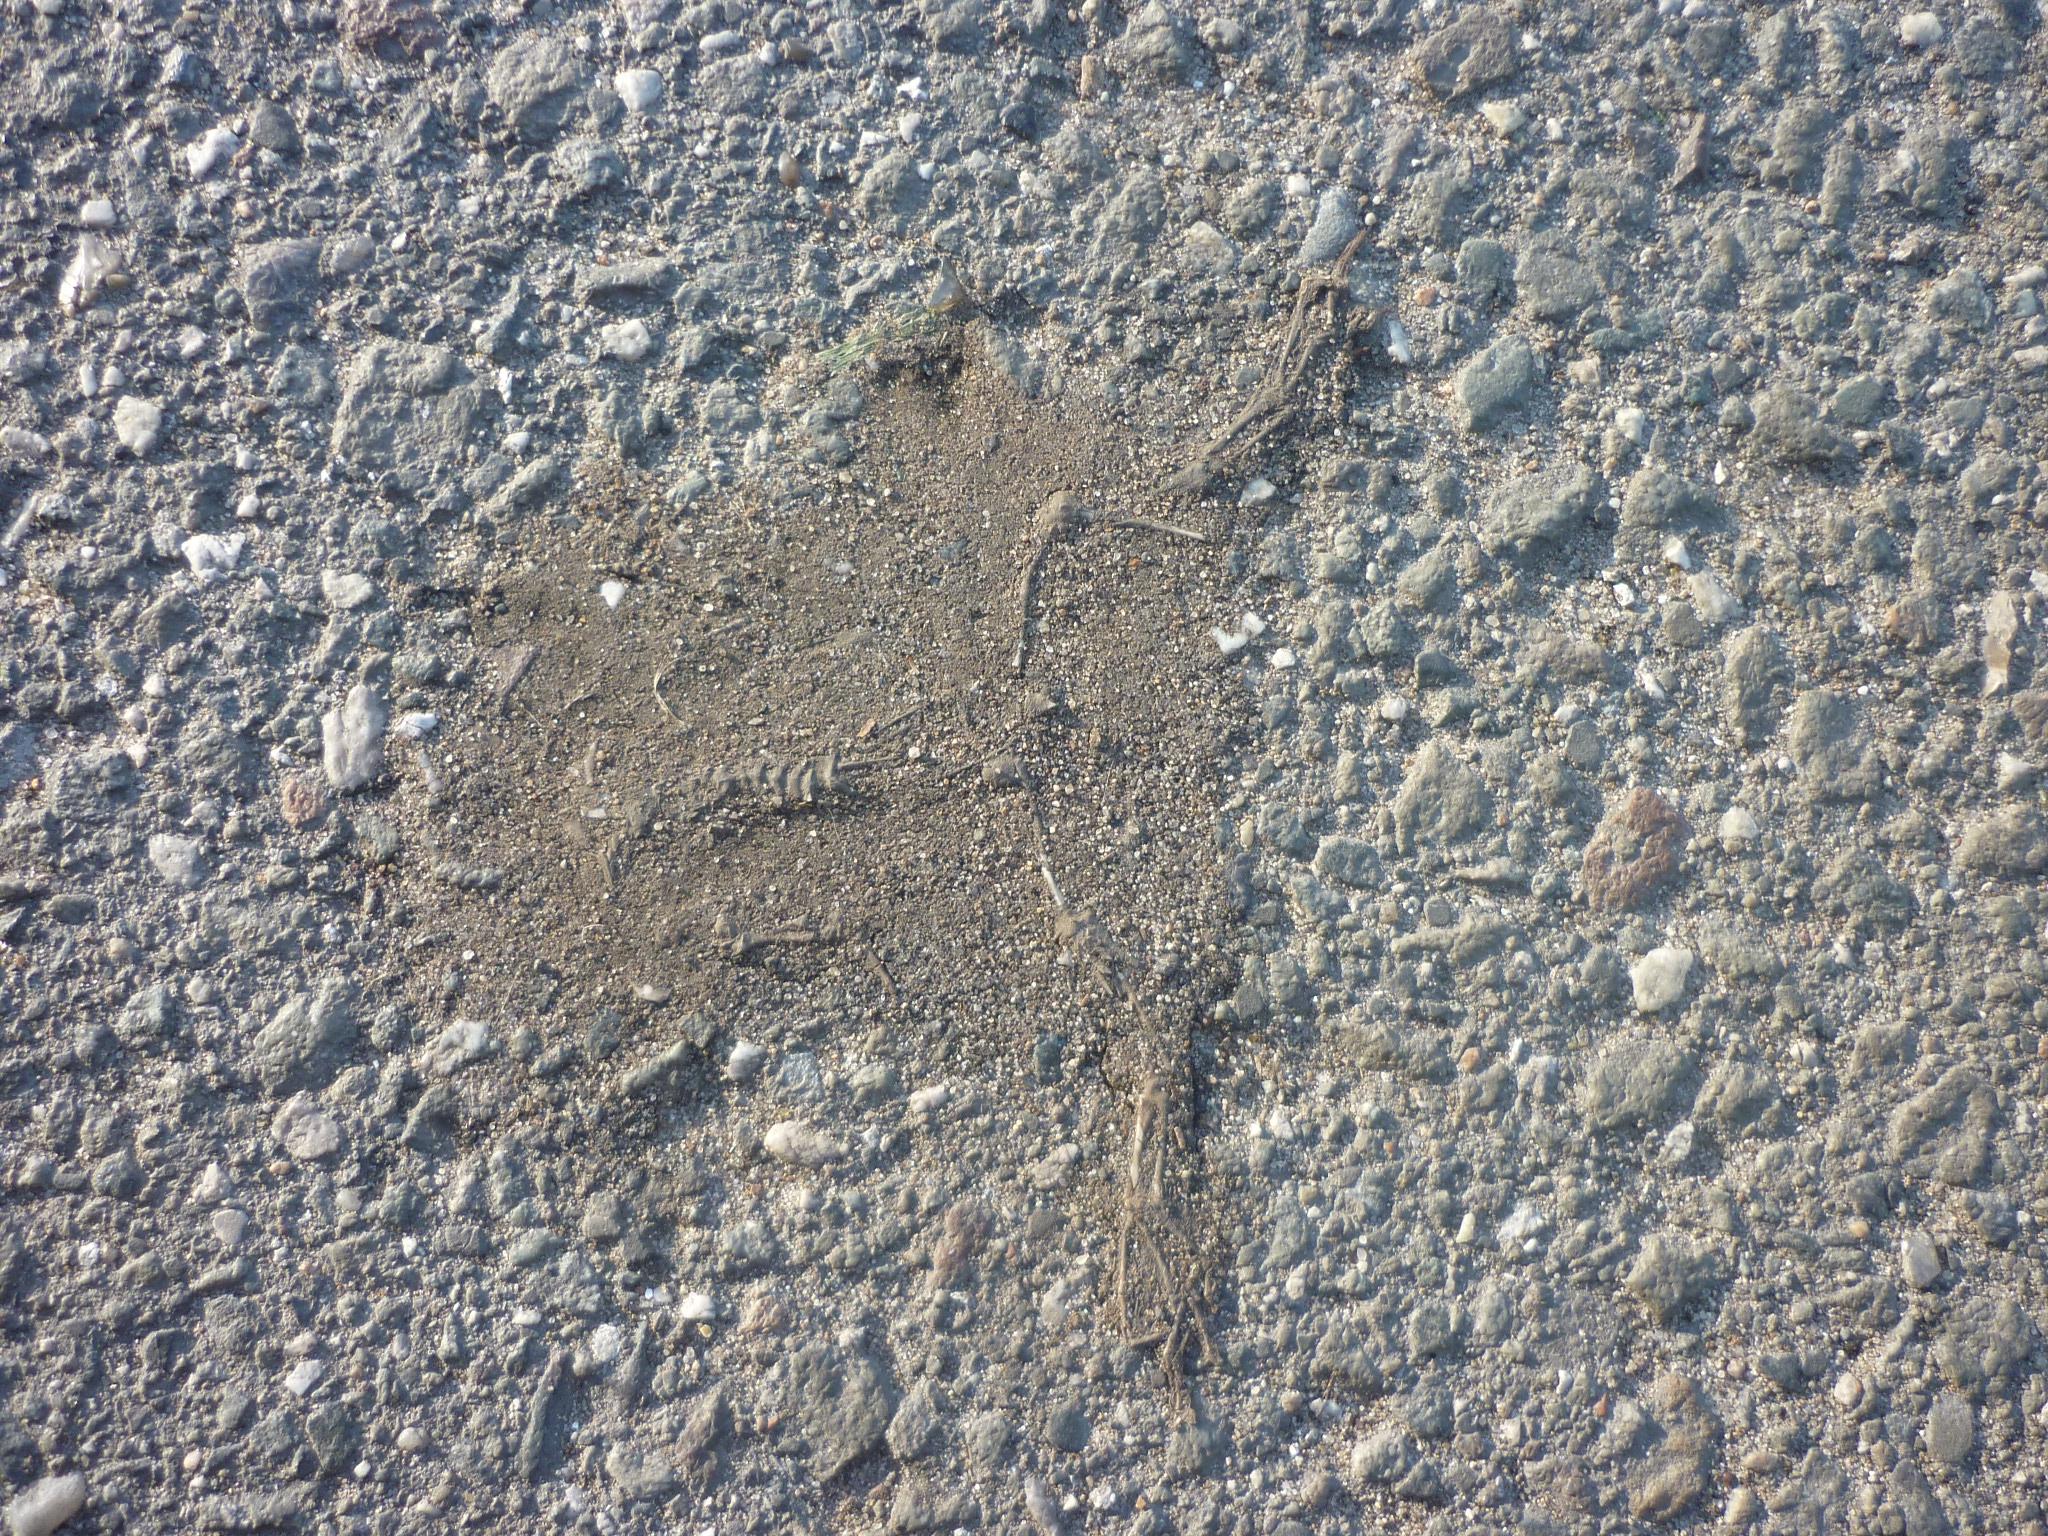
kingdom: Animalia
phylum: Chordata
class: Amphibia
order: Anura
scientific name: Anura
